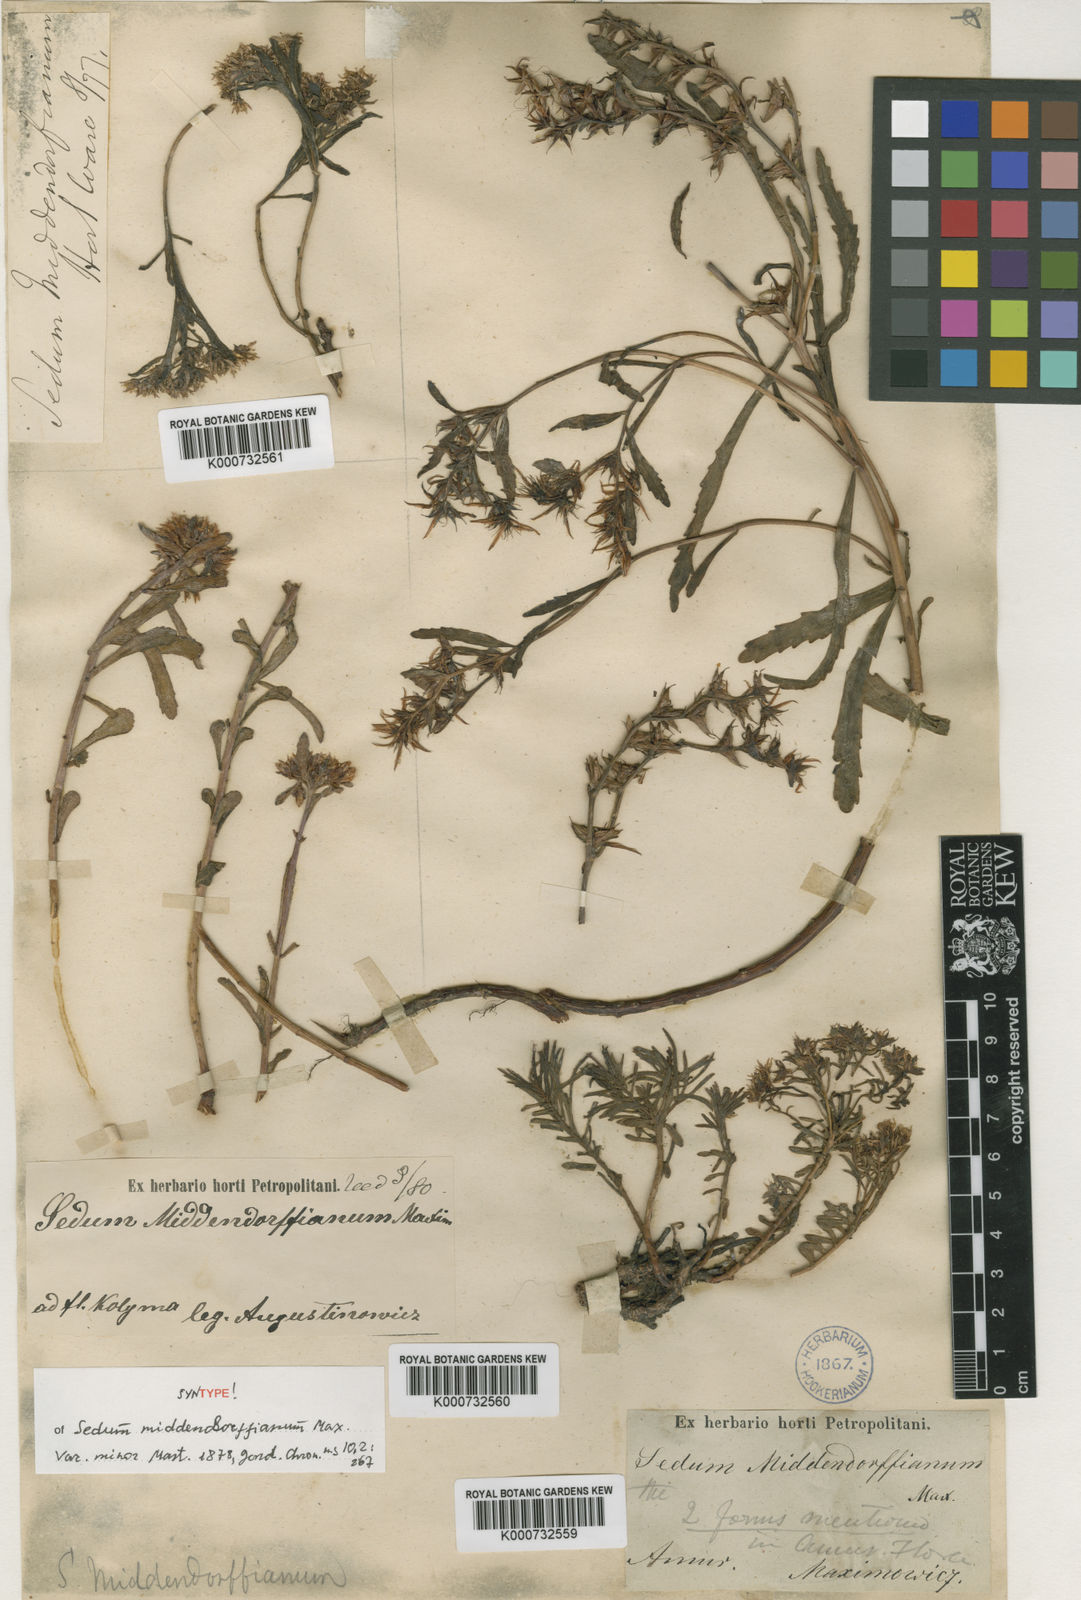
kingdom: Plantae
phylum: Tracheophyta
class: Magnoliopsida
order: Saxifragales
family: Crassulaceae
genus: Phedimus
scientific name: Phedimus middendorfianus
